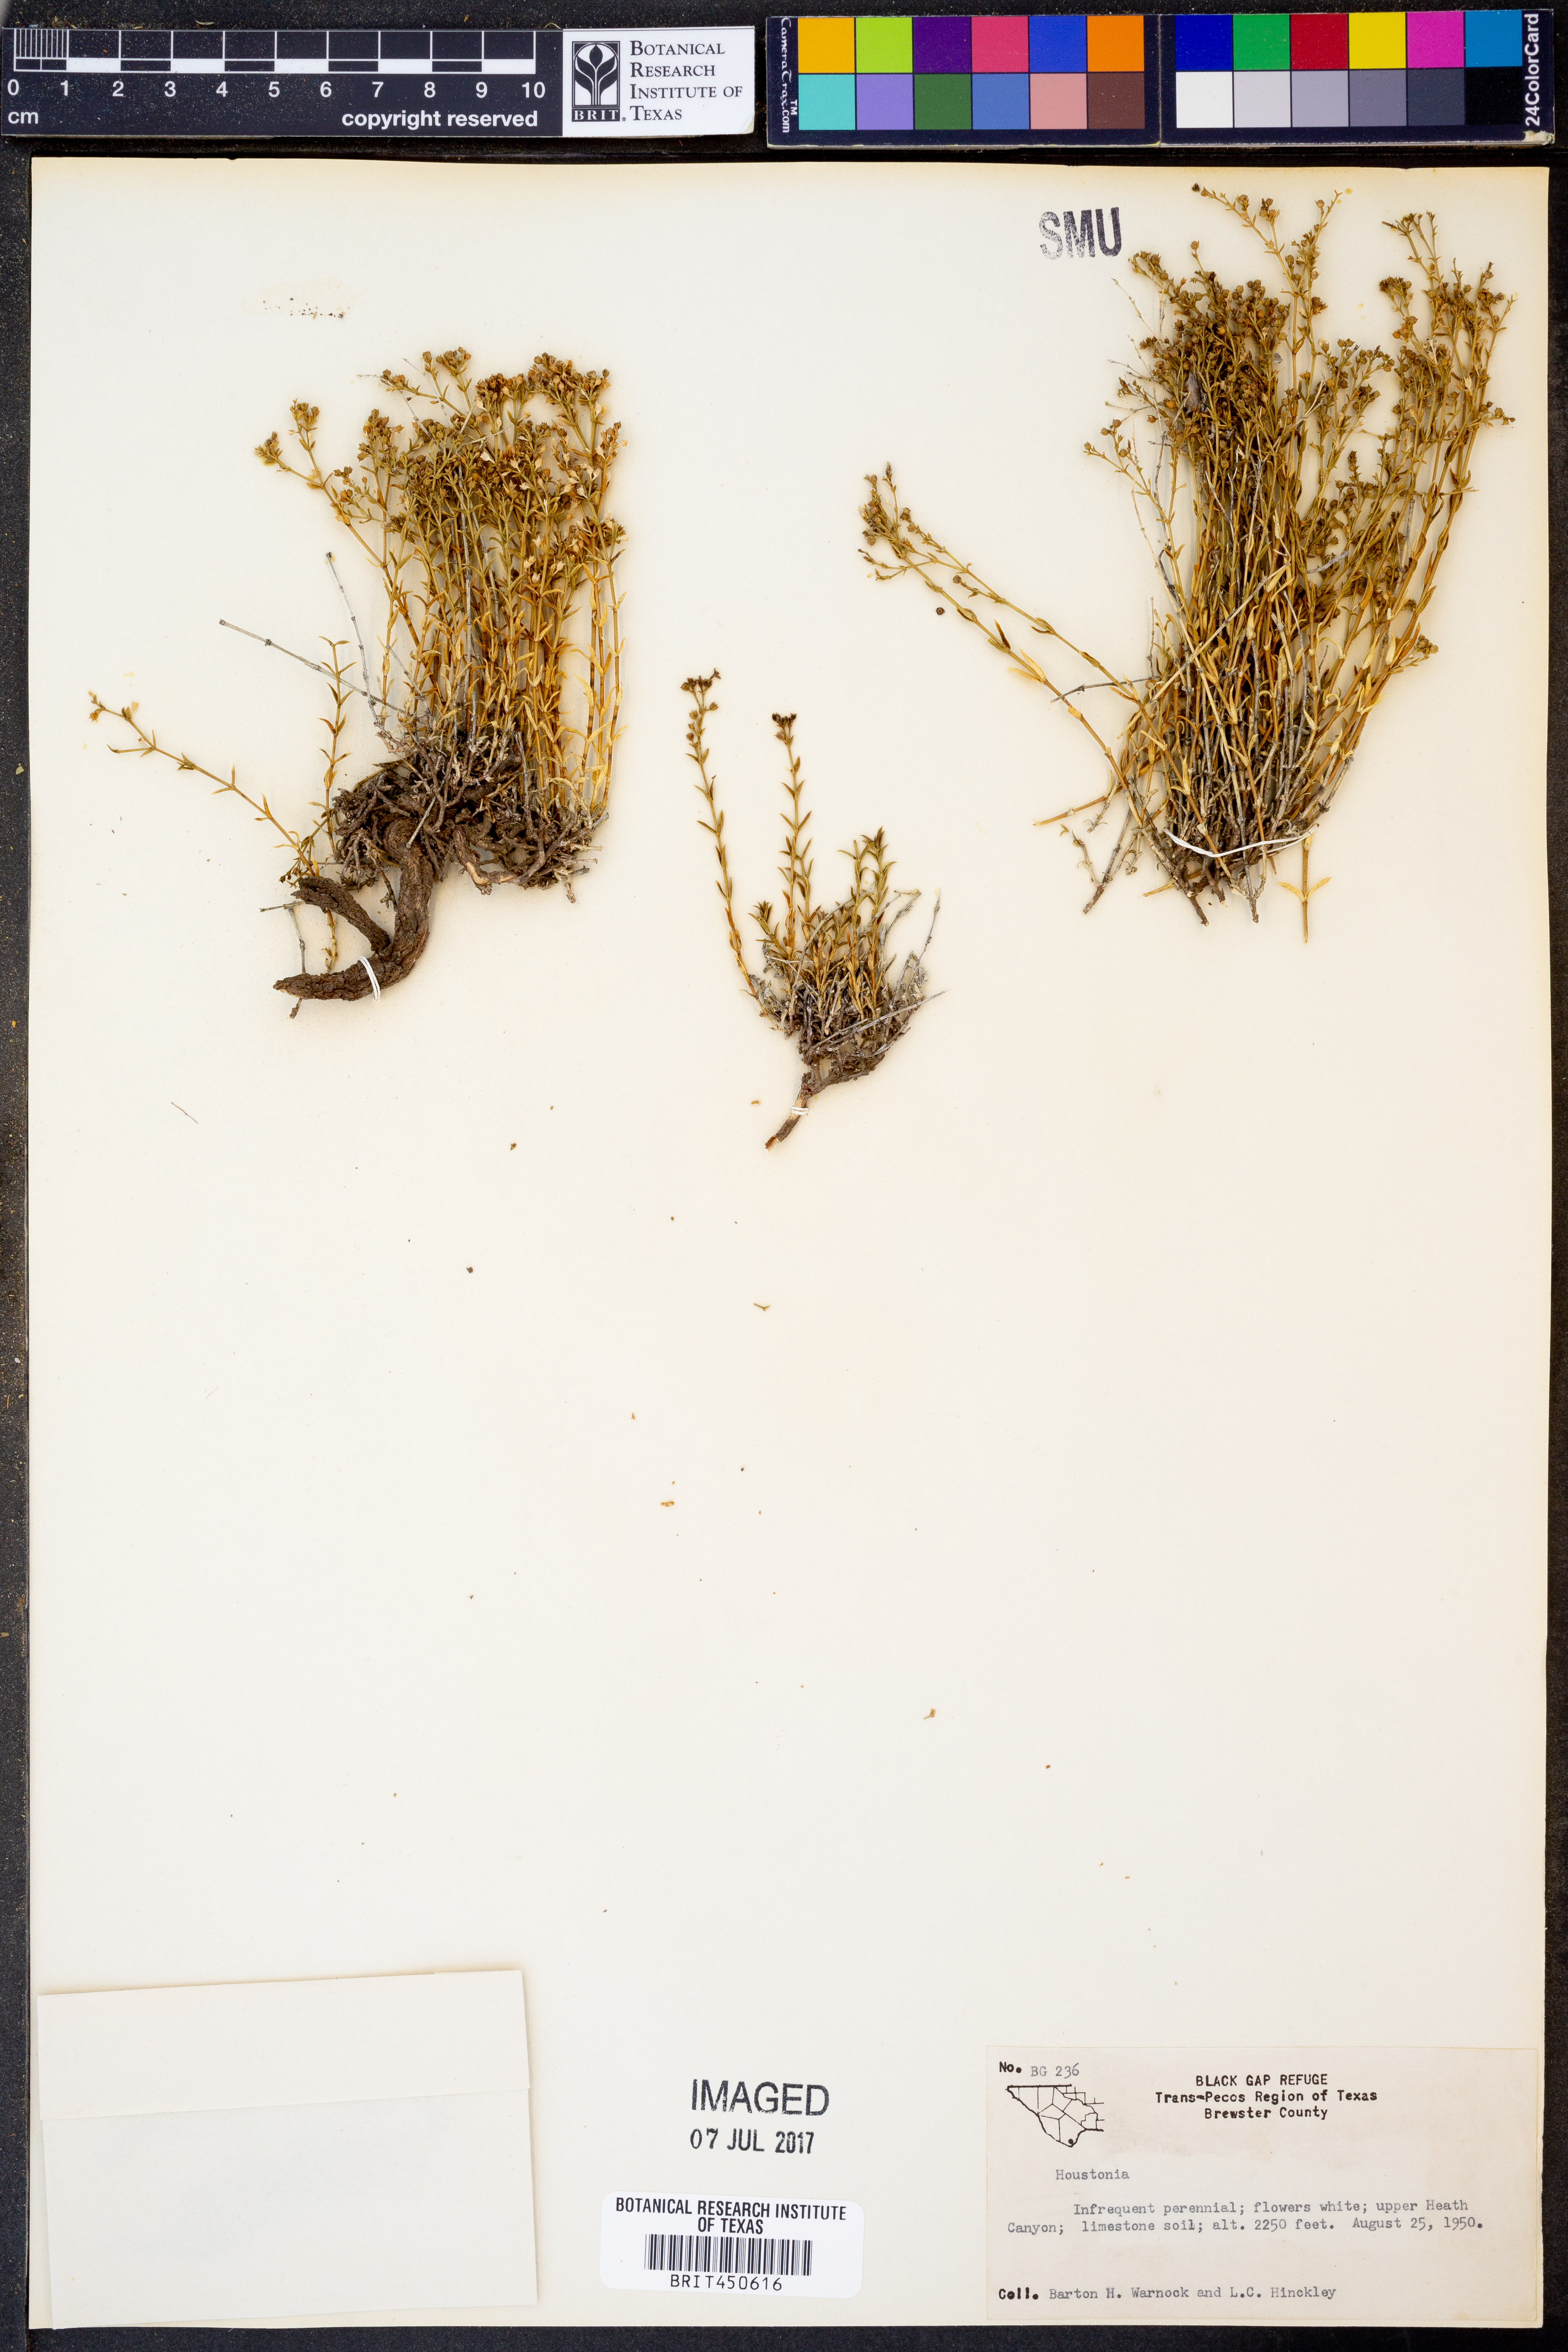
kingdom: Plantae
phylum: Tracheophyta
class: Magnoliopsida
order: Gentianales
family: Rubiaceae
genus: Houstonia
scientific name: Houstonia
